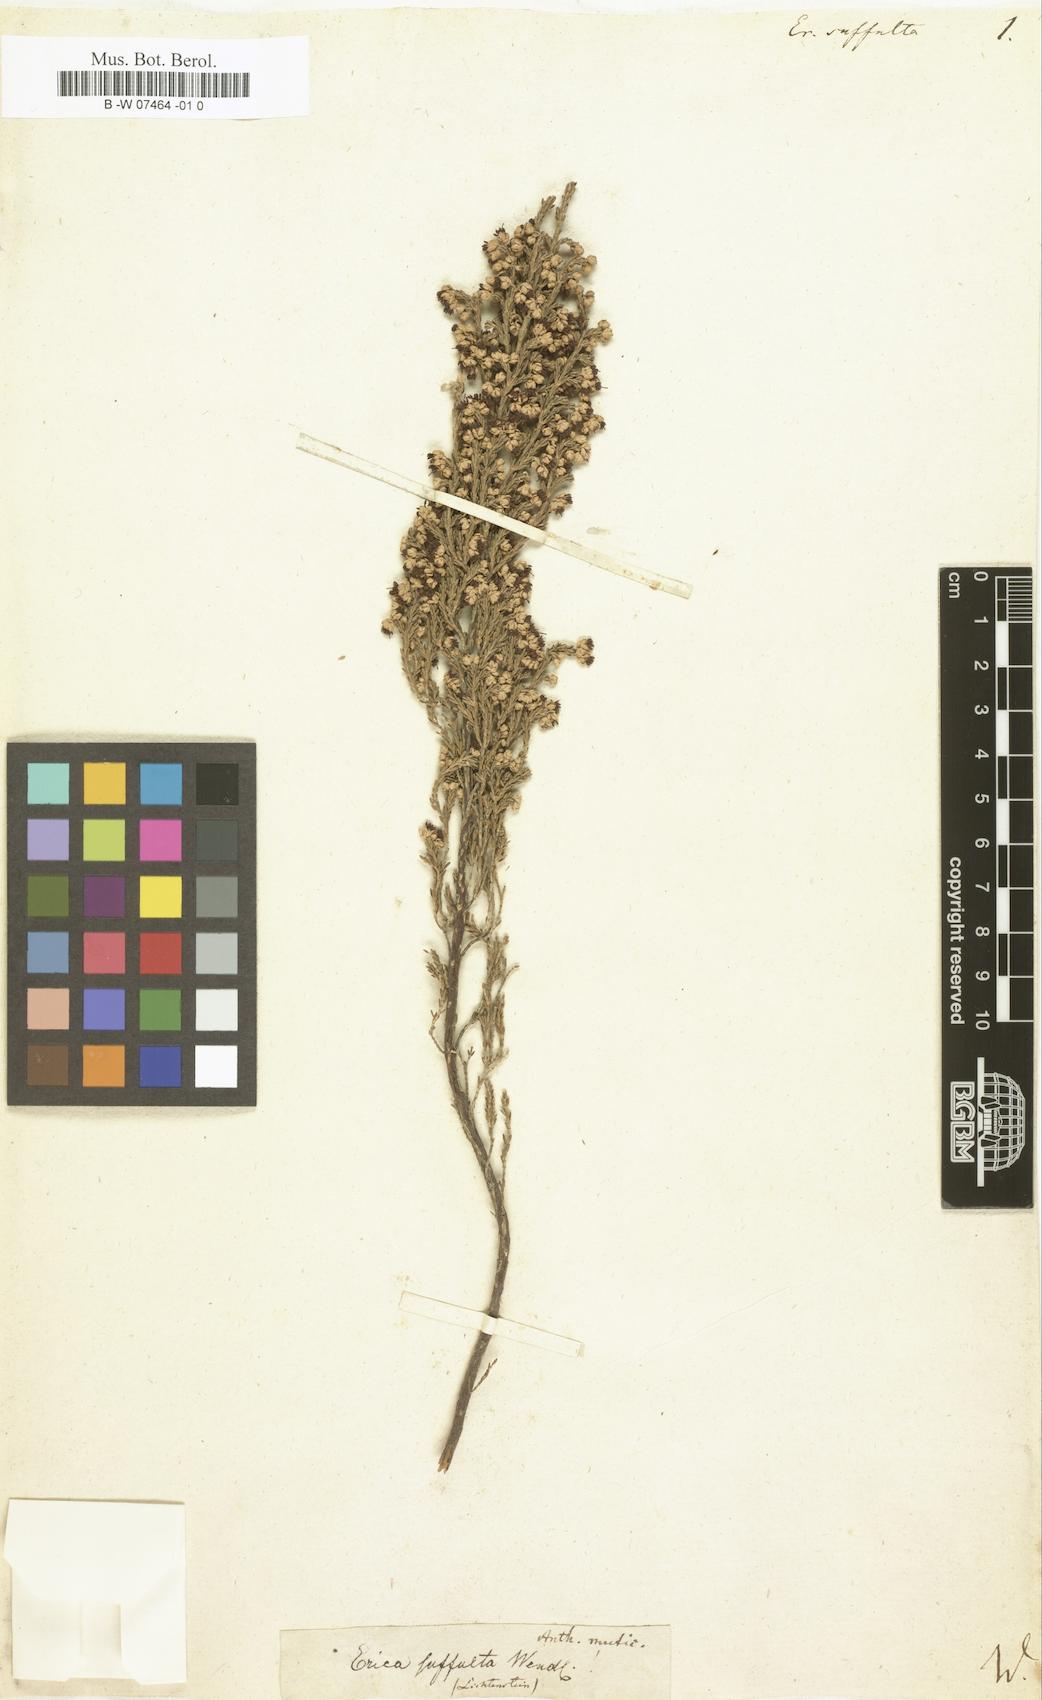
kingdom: Plantae
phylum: Tracheophyta
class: Magnoliopsida
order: Ericales
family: Ericaceae
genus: Erica
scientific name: Erica suffulta
